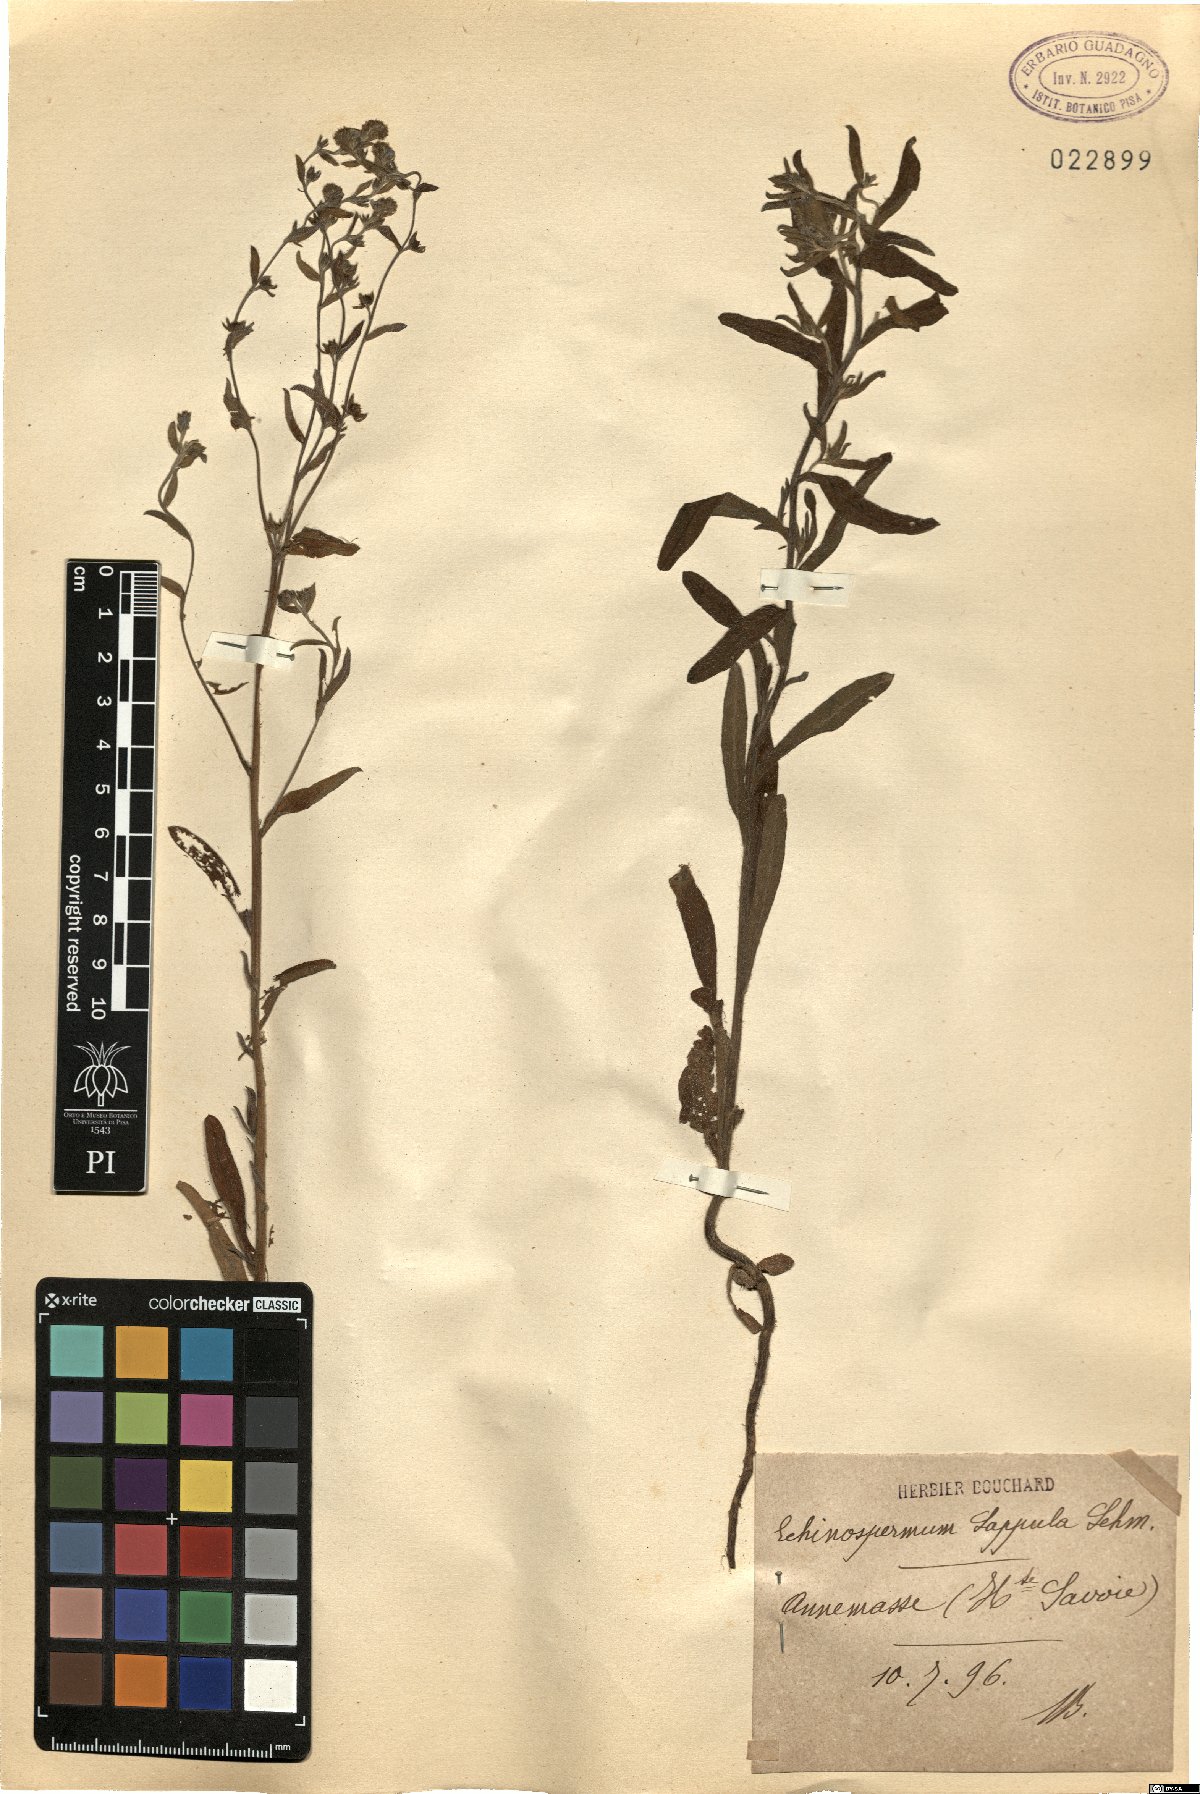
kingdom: Plantae
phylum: Tracheophyta
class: Magnoliopsida
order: Boraginales
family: Boraginaceae
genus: Lappula
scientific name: Lappula squarrosa
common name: European stickseed
